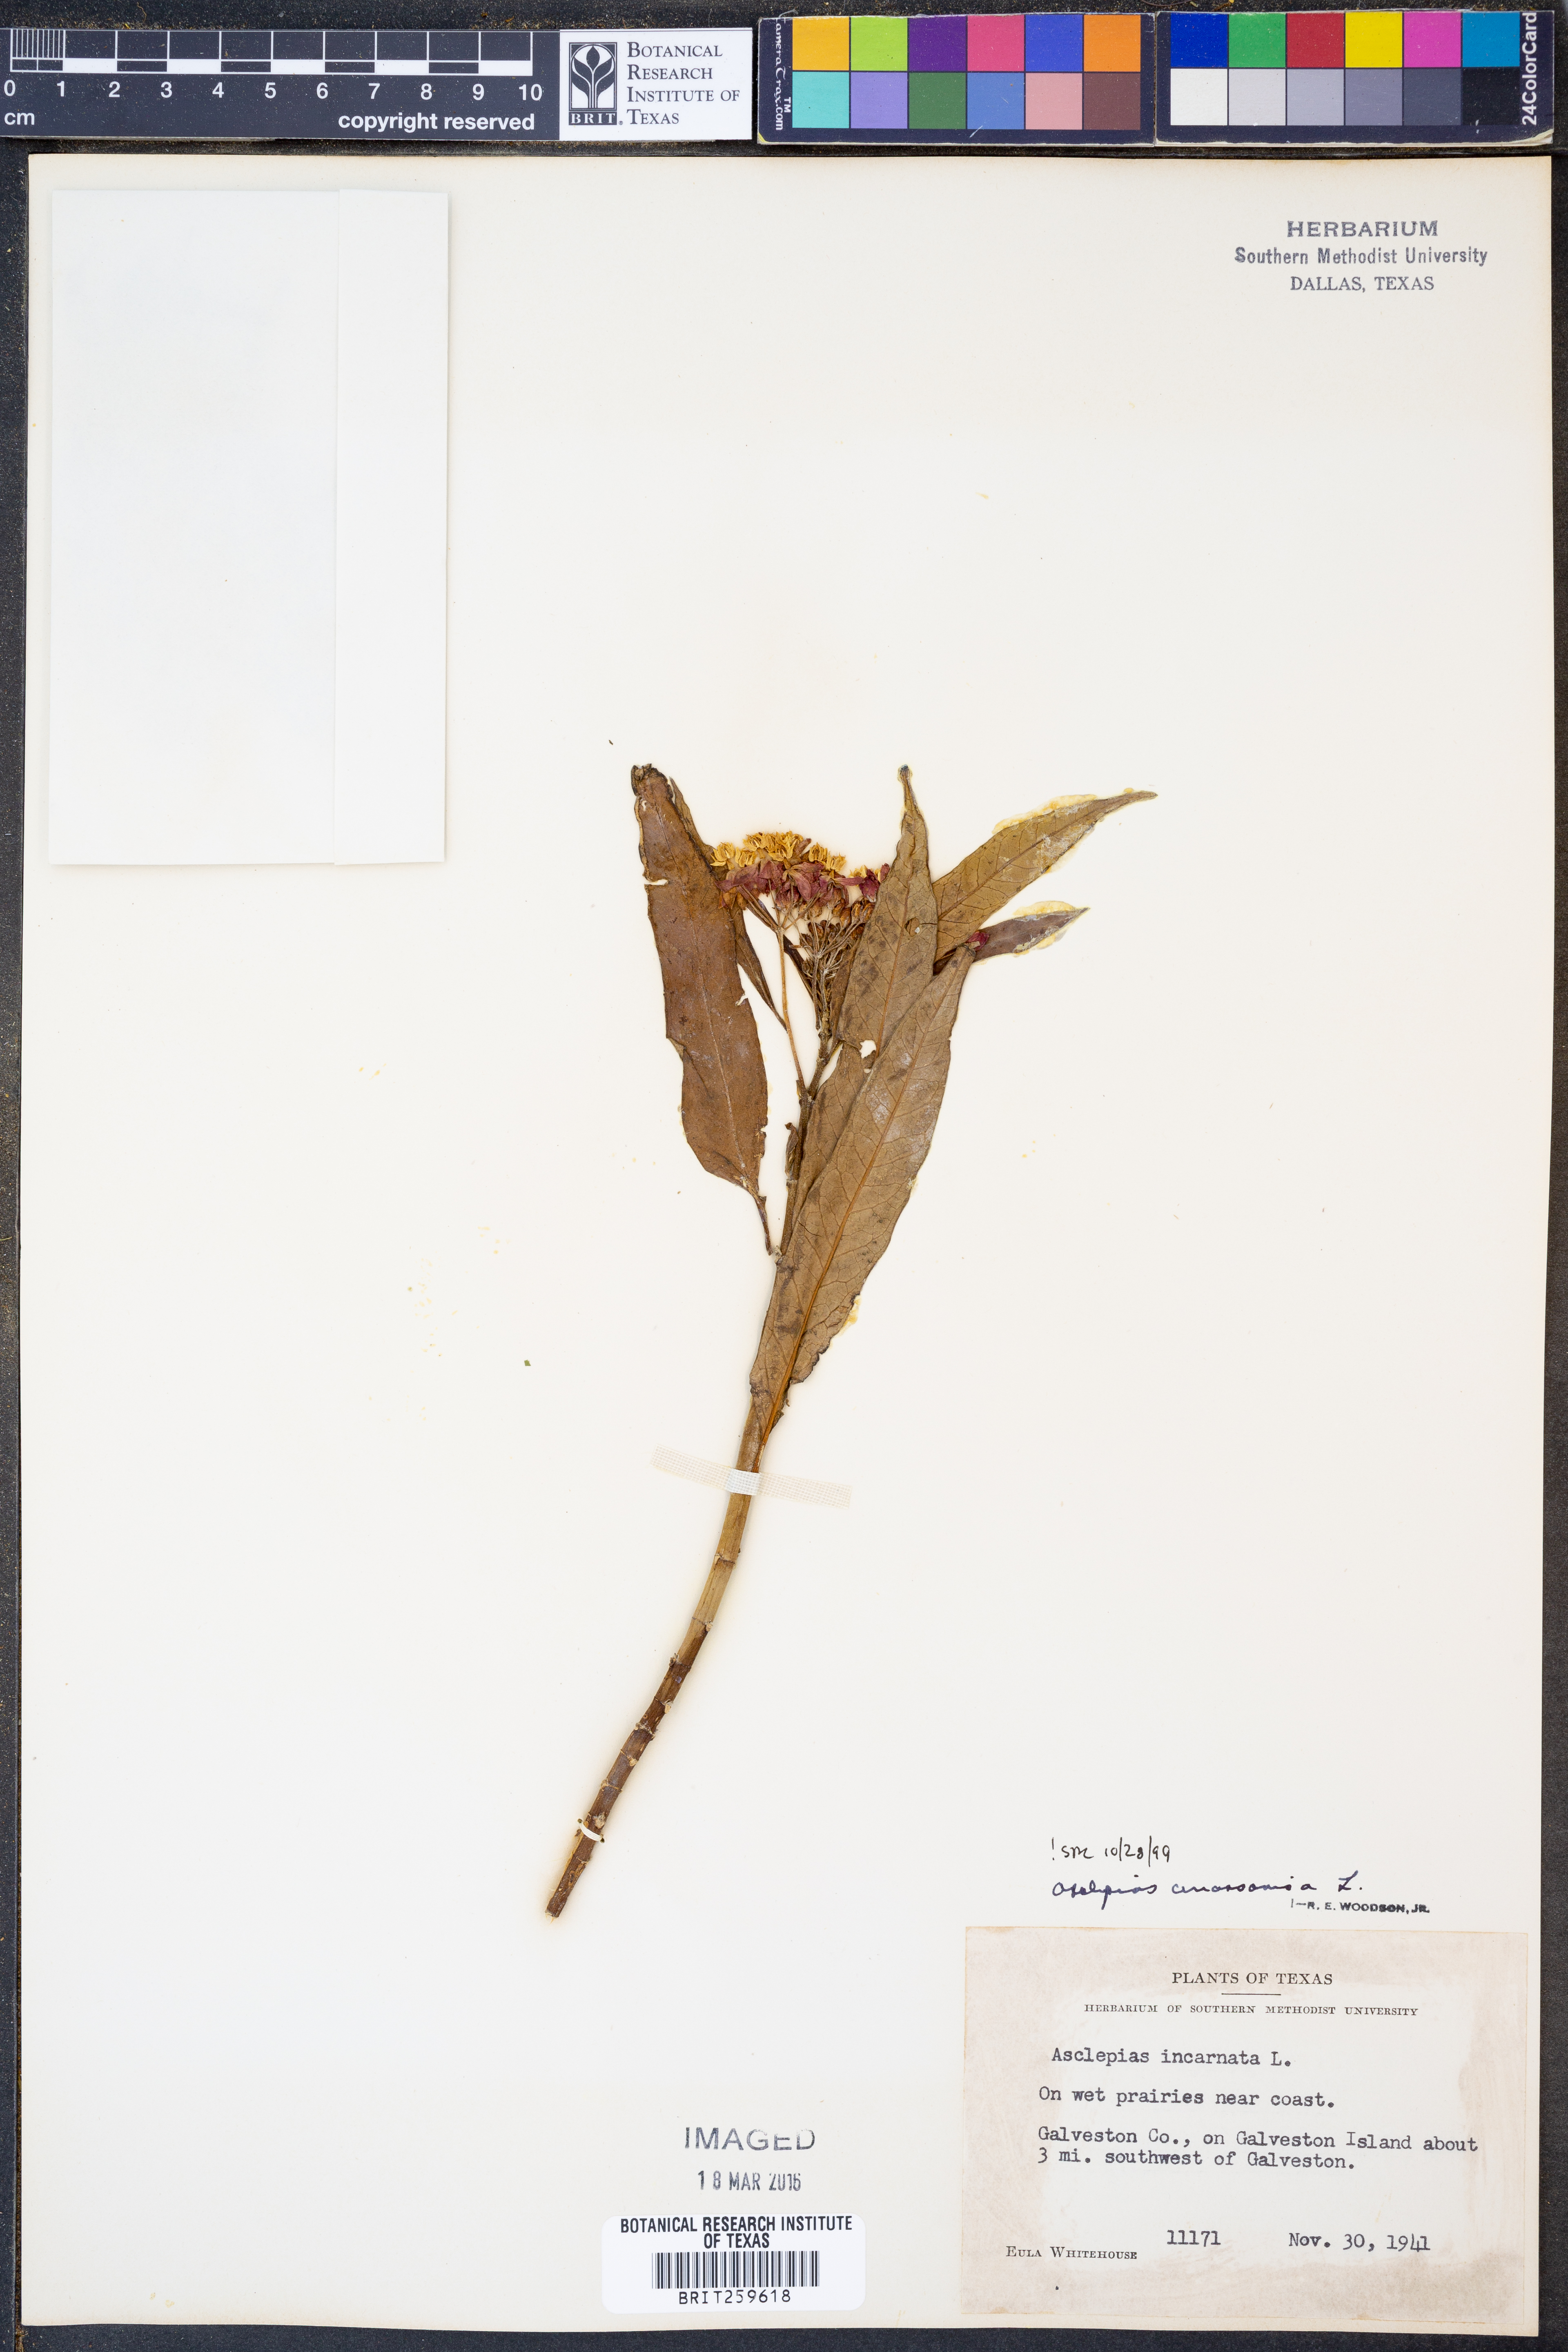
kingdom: Plantae
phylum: Tracheophyta
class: Magnoliopsida
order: Gentianales
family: Apocynaceae
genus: Asclepias
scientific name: Asclepias curassavica
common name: Bloodflower
